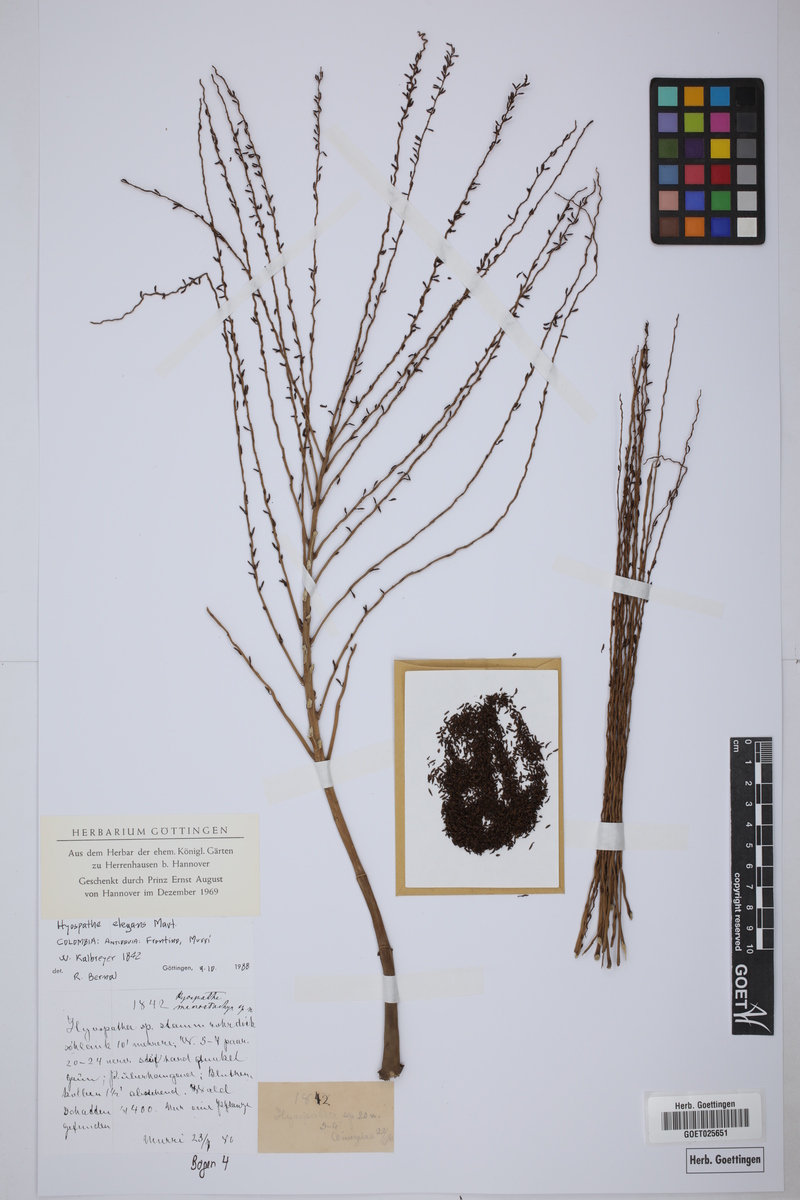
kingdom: Plantae
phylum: Tracheophyta
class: Liliopsida
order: Arecales
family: Arecaceae
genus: Hyospathe
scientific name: Hyospathe elegans
